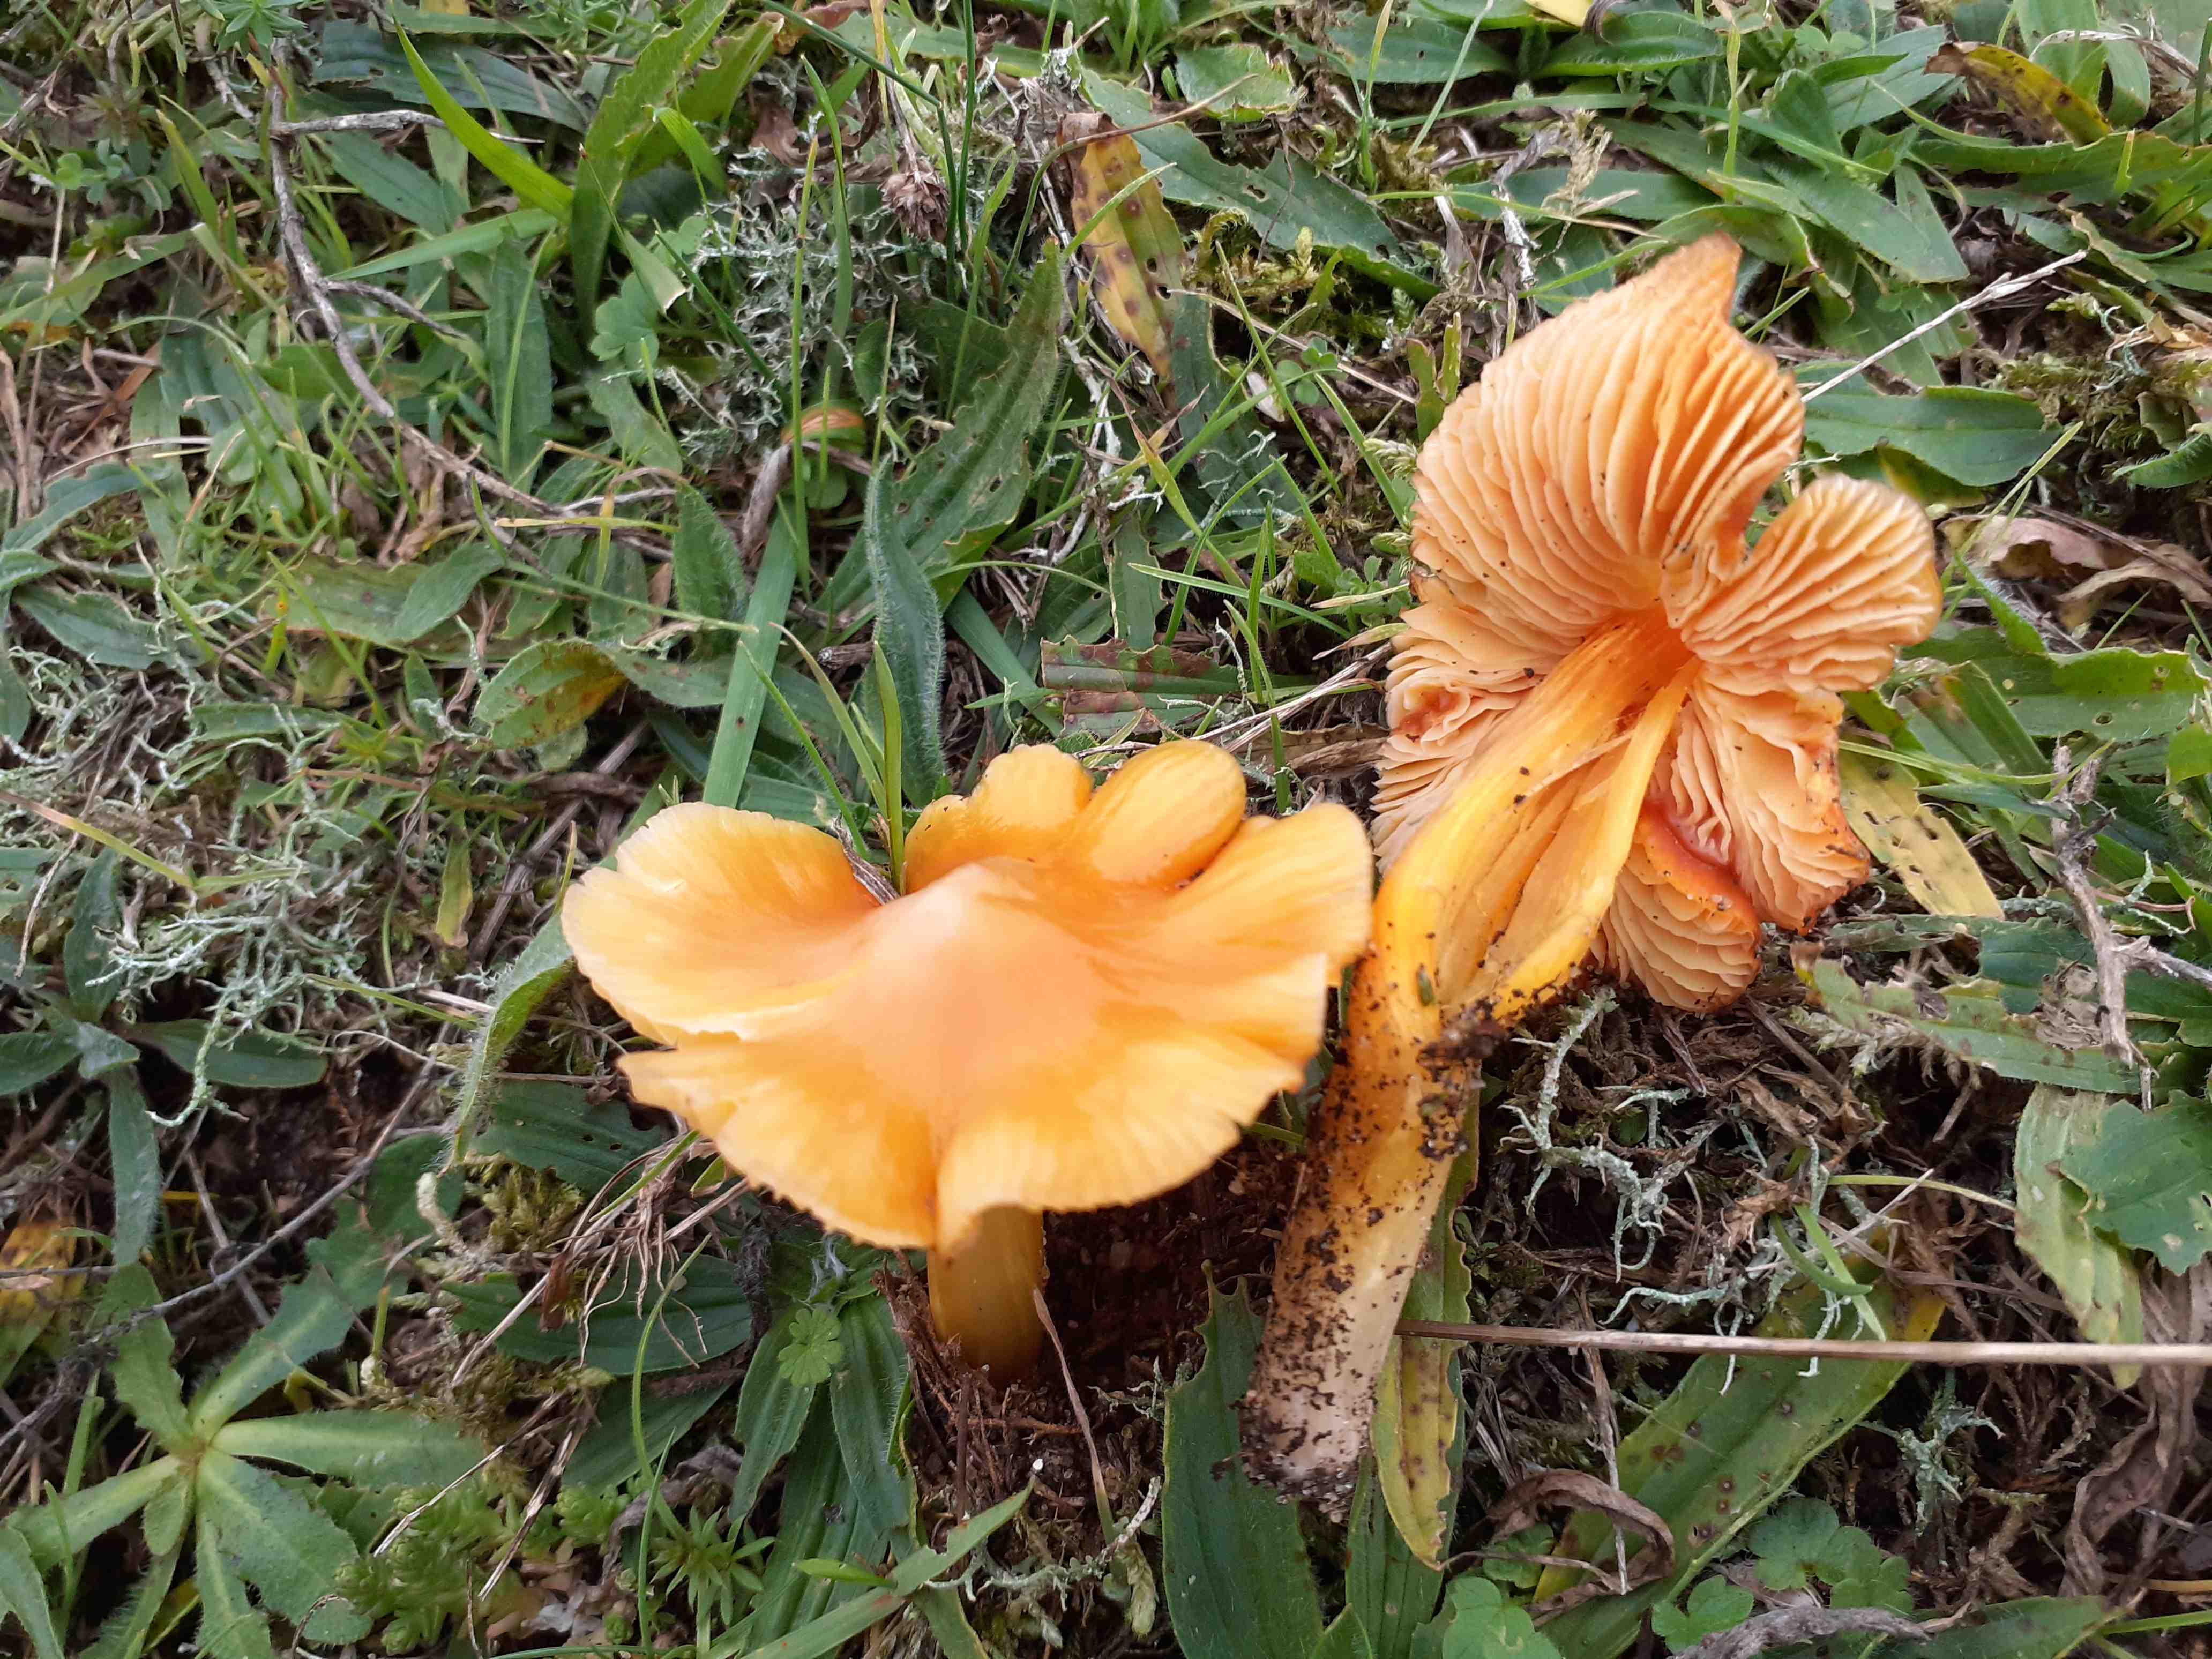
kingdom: Fungi
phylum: Basidiomycota
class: Agaricomycetes
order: Agaricales
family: Hygrophoraceae
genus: Hygrocybe
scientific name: Hygrocybe acutoconica
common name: spidspuklet vokshat
